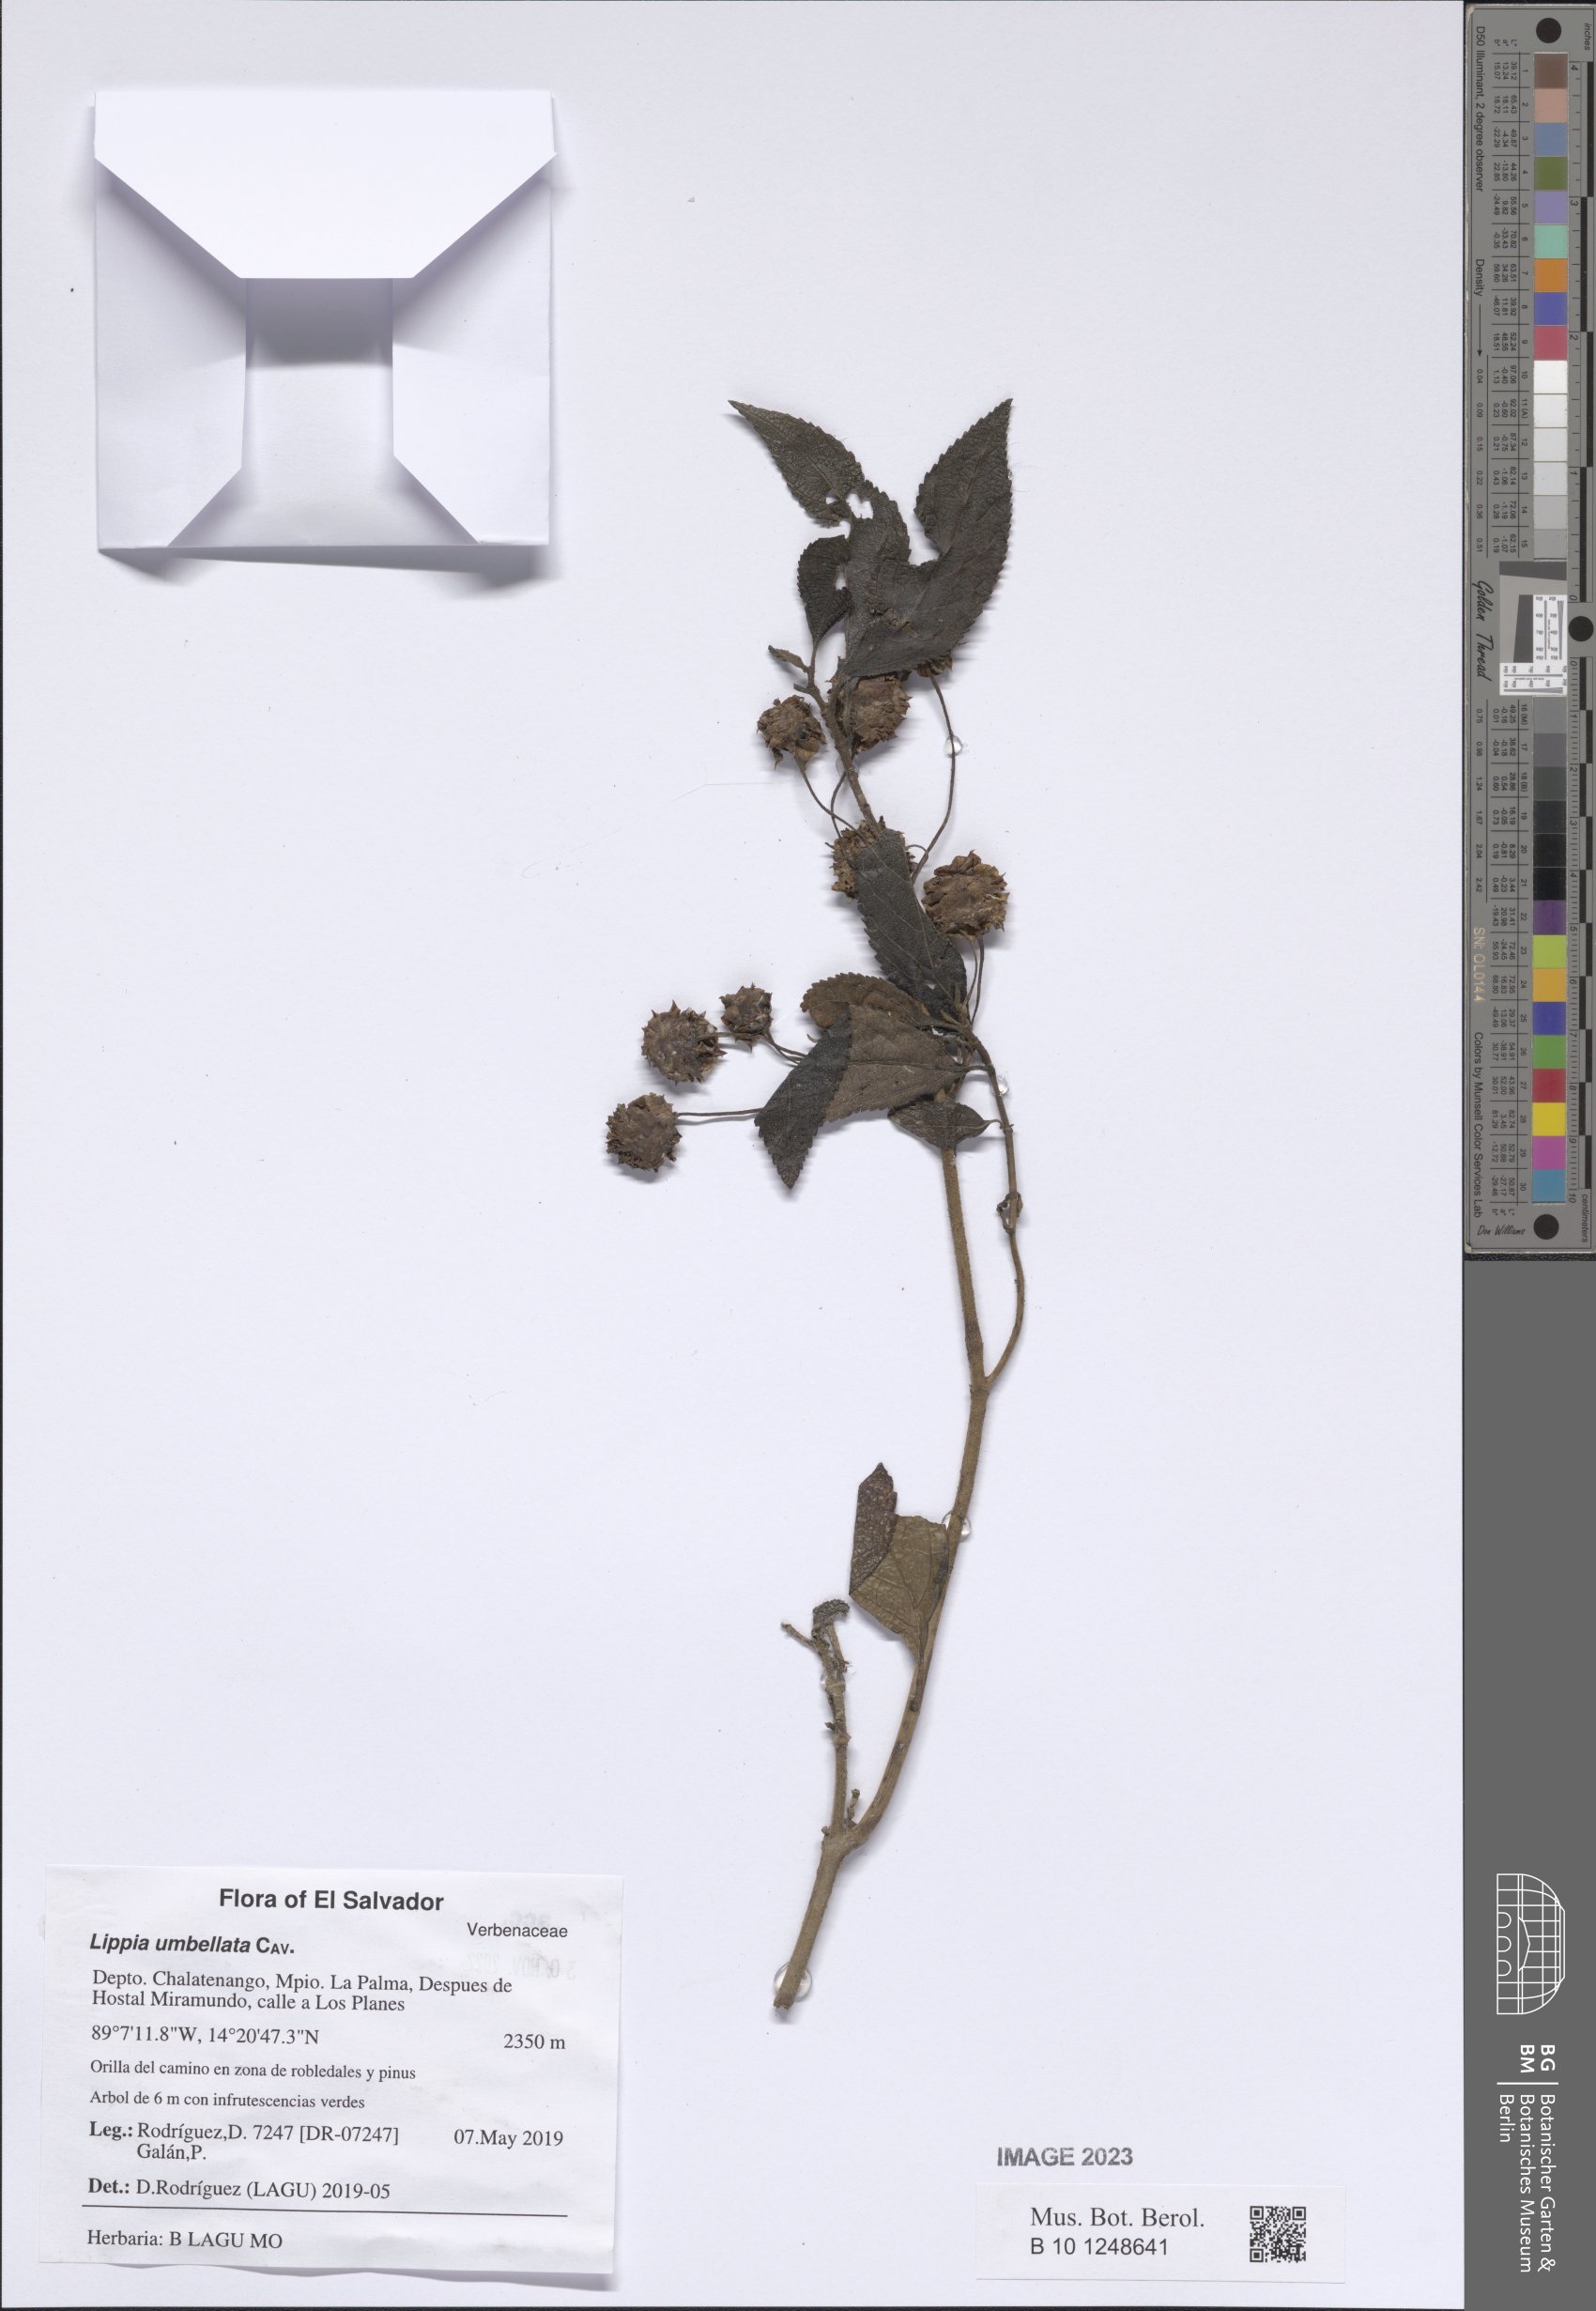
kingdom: Plantae
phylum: Tracheophyta
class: Magnoliopsida
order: Lamiales
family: Verbenaceae
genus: Lippia
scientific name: Lippia umbellata
